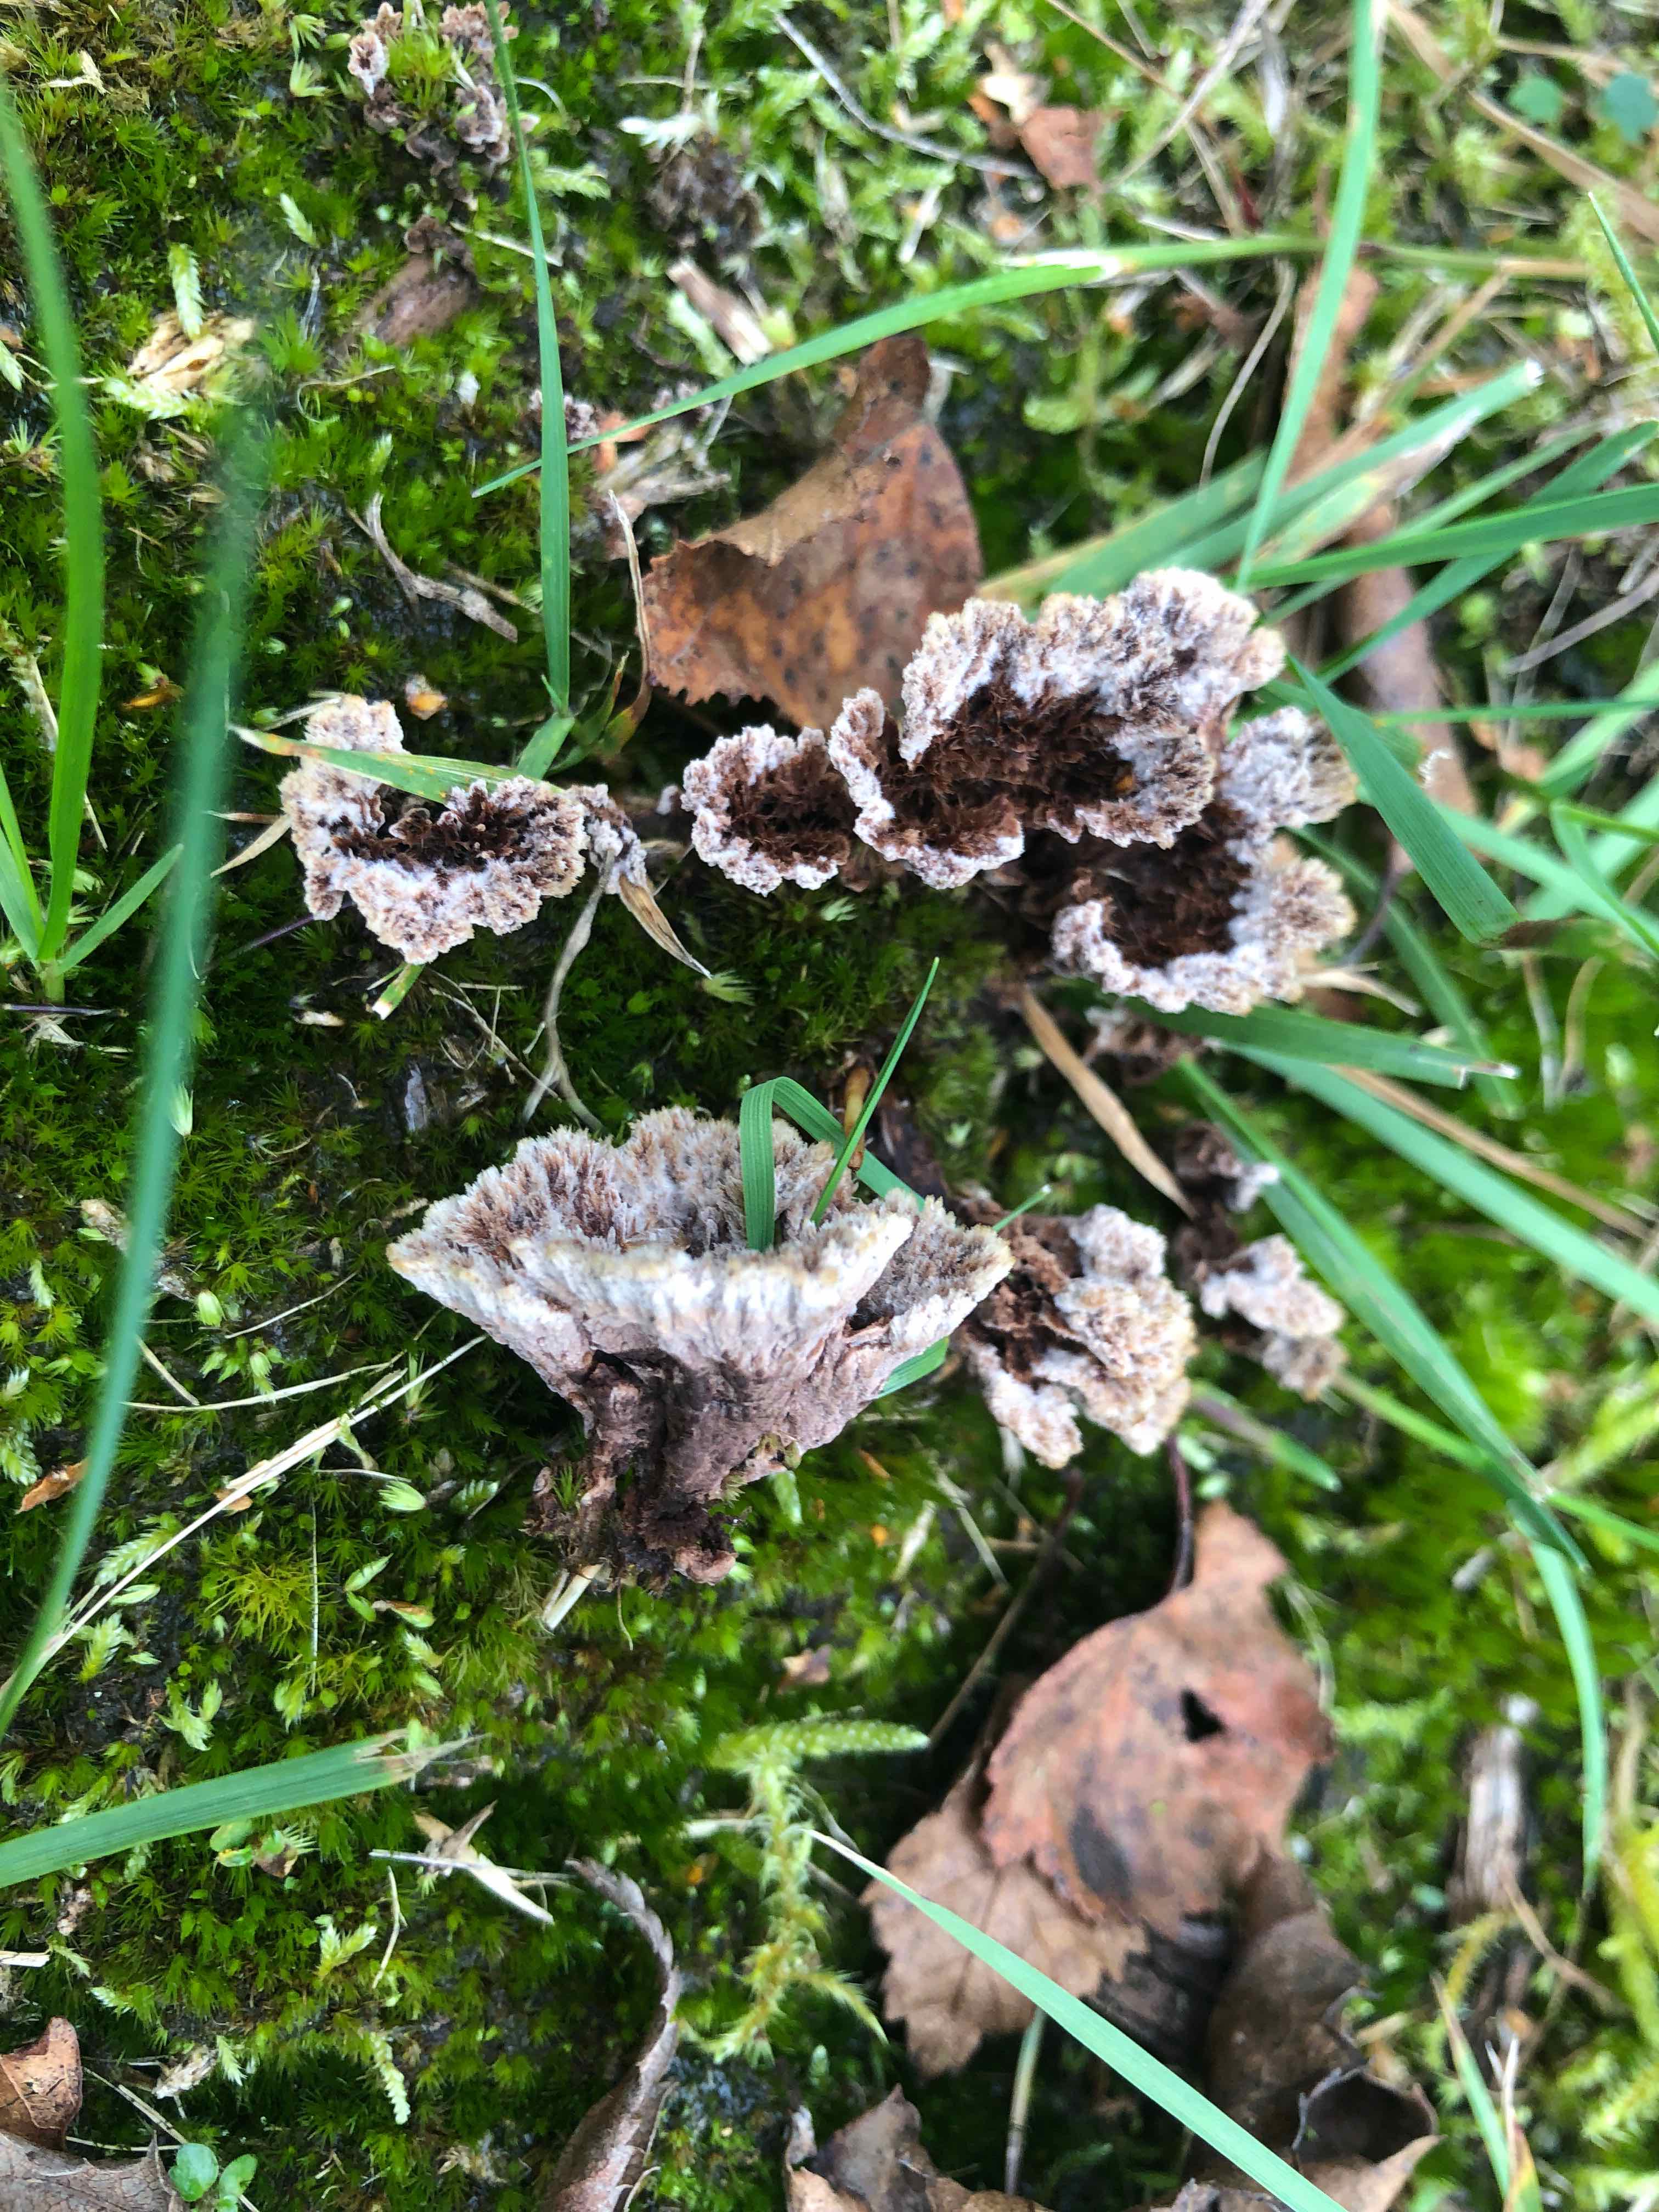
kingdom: Fungi
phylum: Basidiomycota
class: Agaricomycetes
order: Thelephorales
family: Thelephoraceae
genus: Thelephora
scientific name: Thelephora terrestris
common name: fliget frynsesvamp
